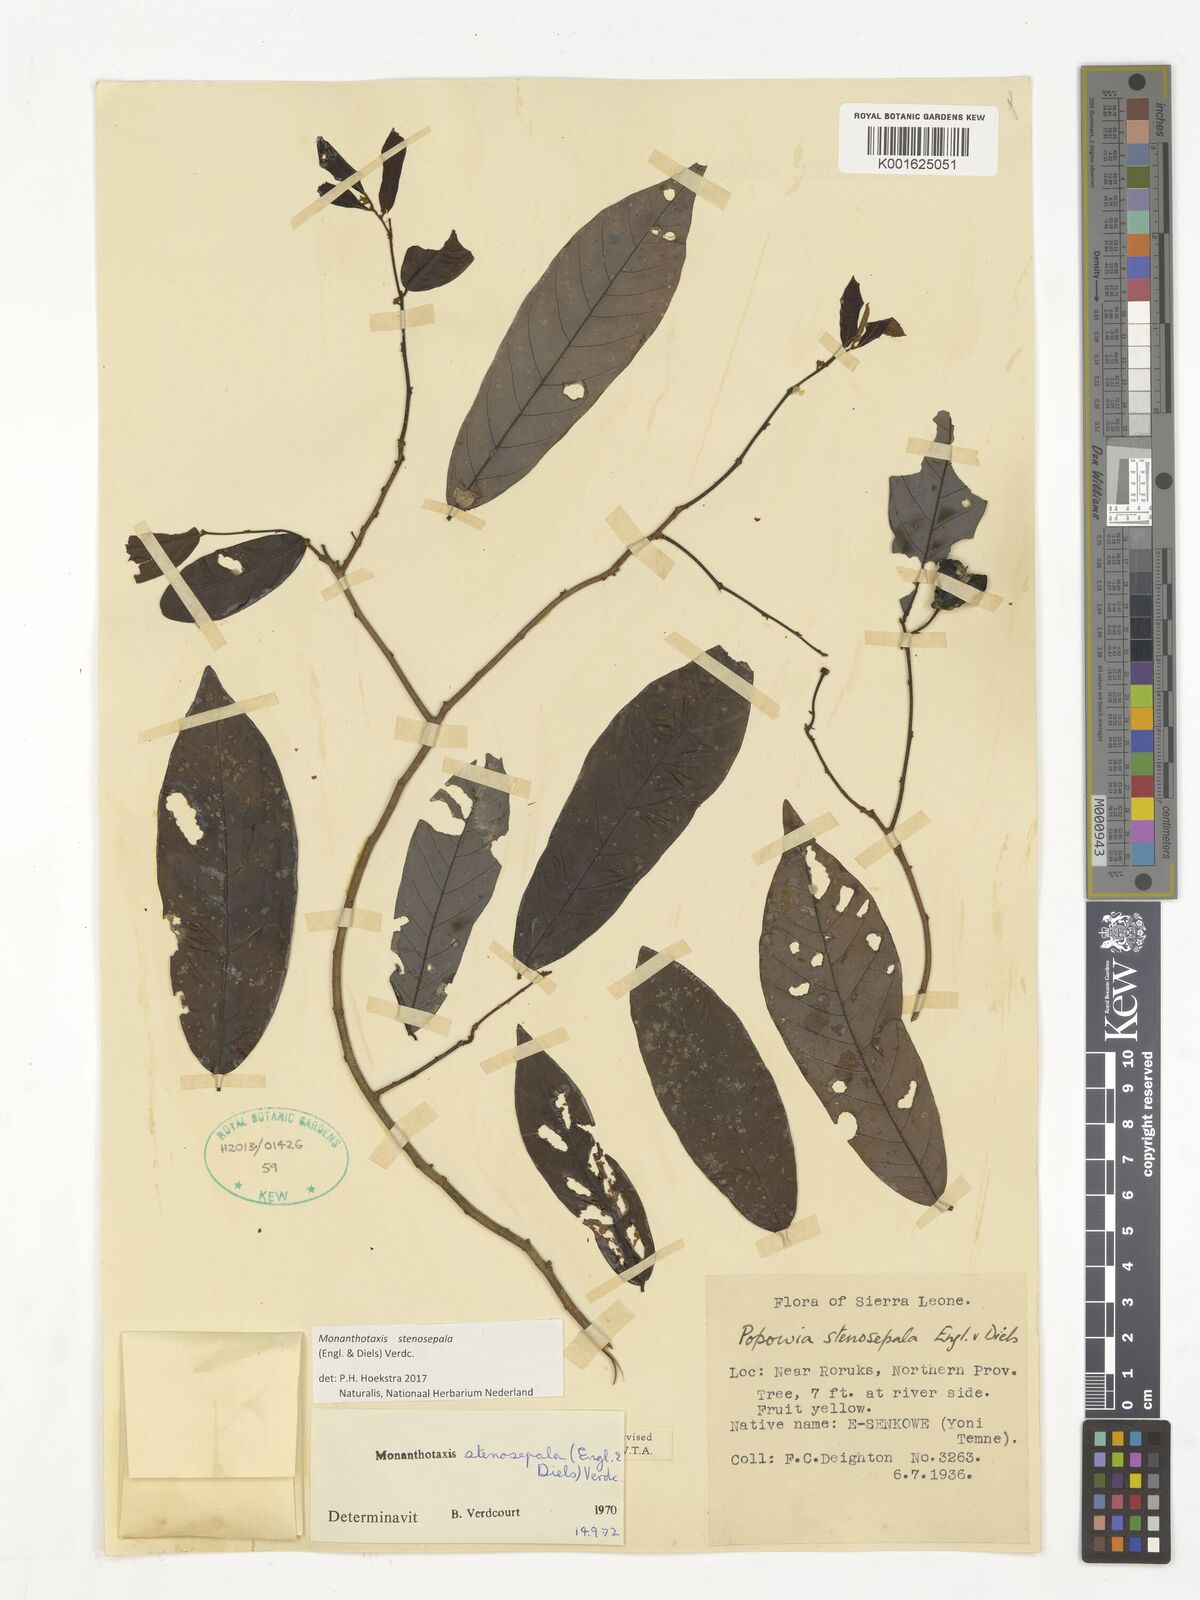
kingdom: Plantae
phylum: Tracheophyta
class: Magnoliopsida
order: Magnoliales
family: Annonaceae
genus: Monanthotaxis
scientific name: Monanthotaxis stenosepala
